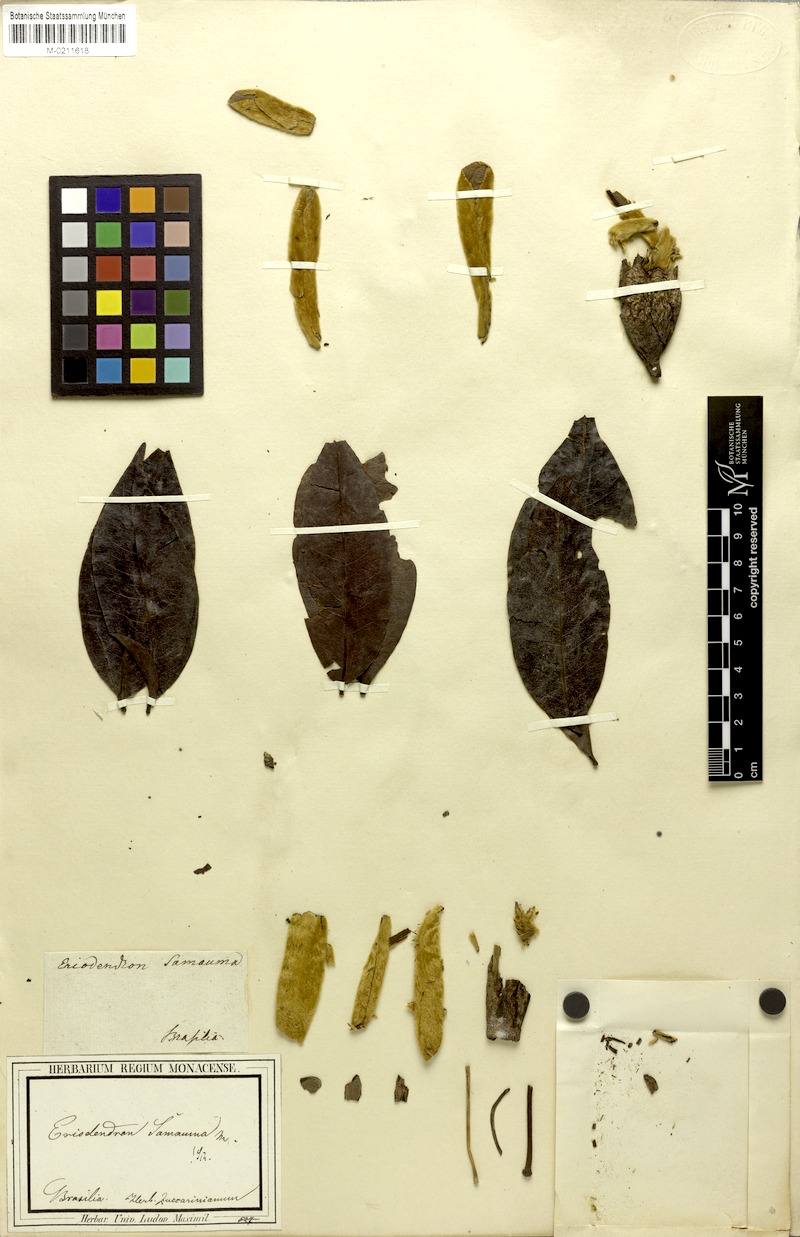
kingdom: Plantae
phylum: Tracheophyta
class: Magnoliopsida
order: Malvales
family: Malvaceae
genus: Ceiba
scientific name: Ceiba samauma
